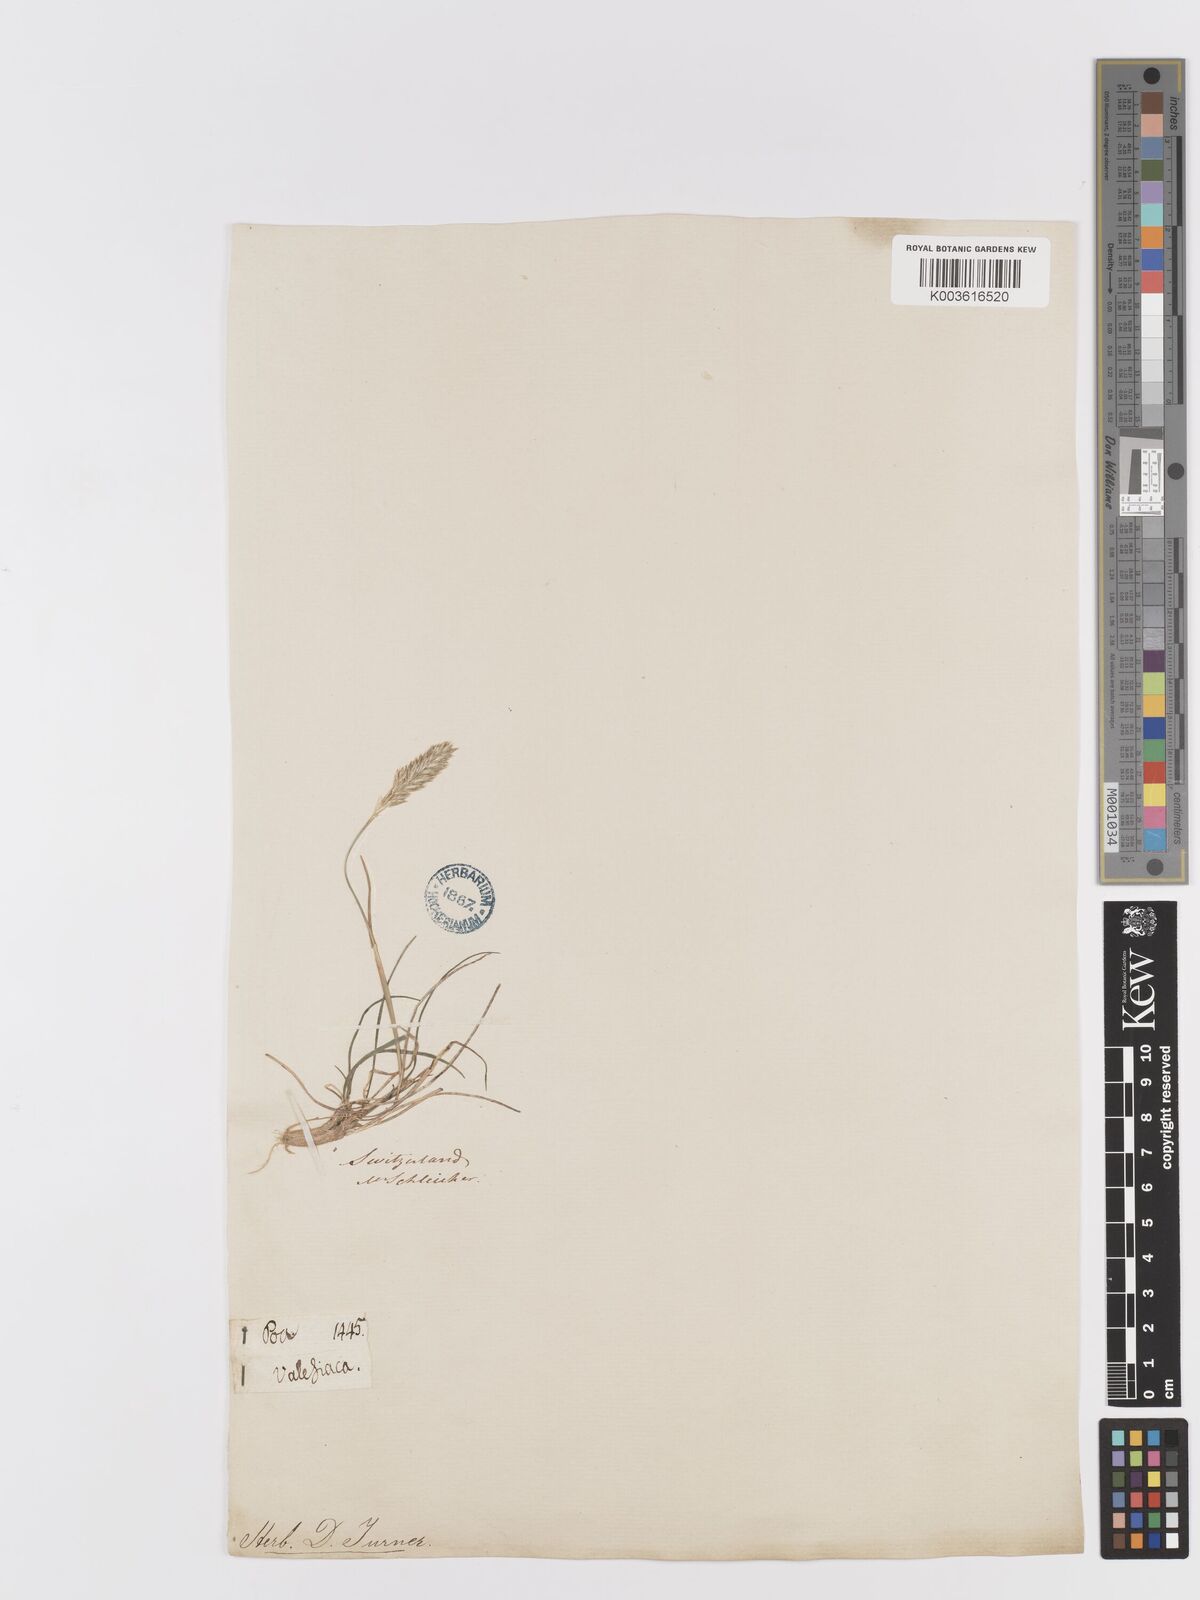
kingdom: Plantae
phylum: Tracheophyta
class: Liliopsida
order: Poales
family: Poaceae
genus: Koeleria
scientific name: Koeleria vallesiana
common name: Somerset hair-grass
